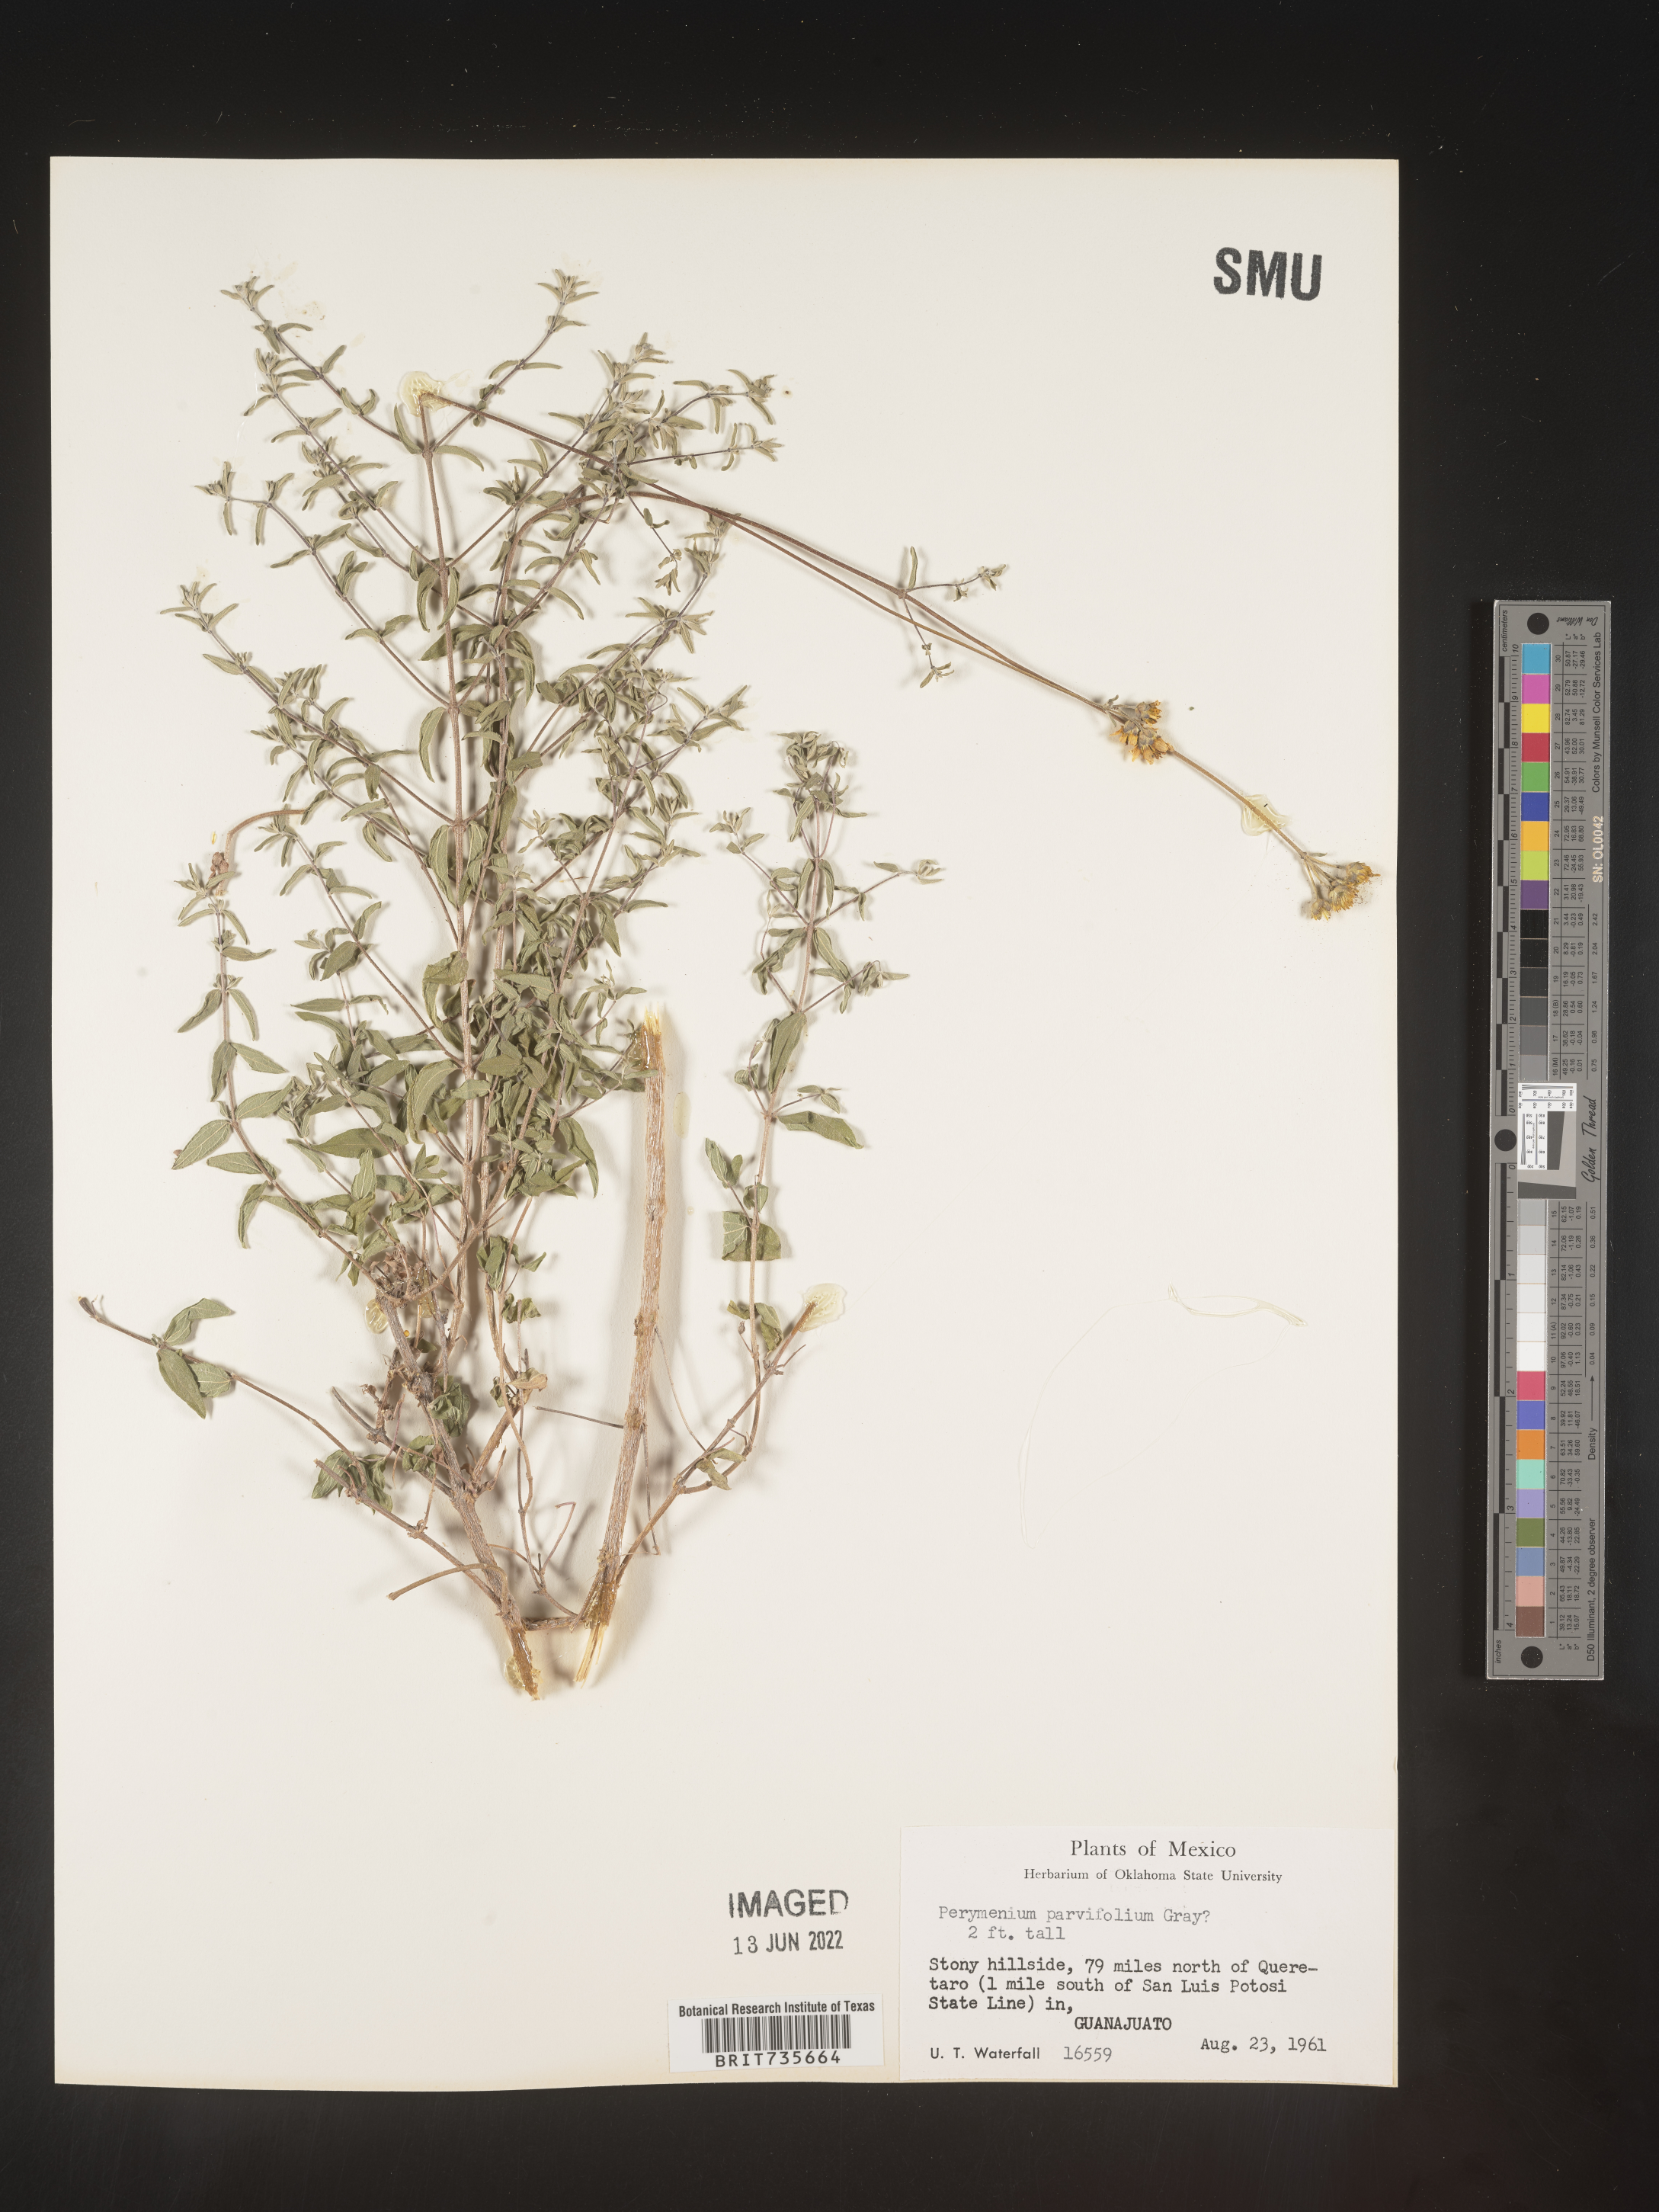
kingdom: Plantae
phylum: Tracheophyta
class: Magnoliopsida
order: Asterales
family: Asteraceae
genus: Perymenium
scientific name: Perymenium
